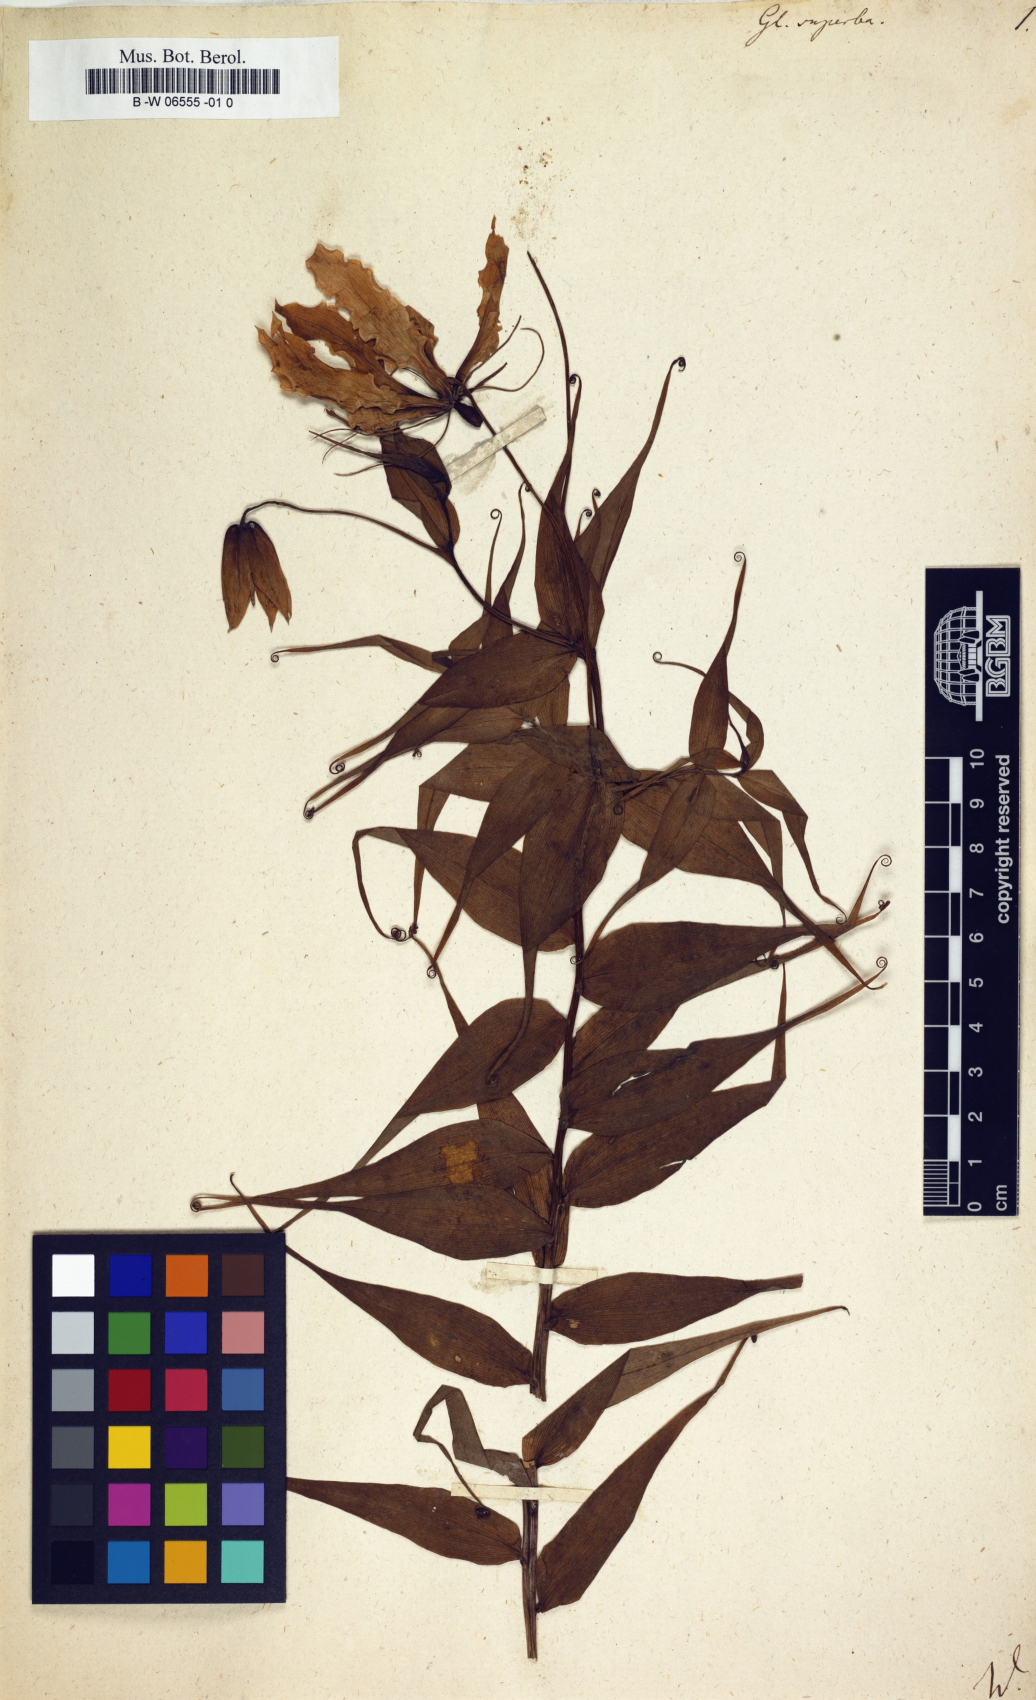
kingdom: Plantae
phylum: Tracheophyta
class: Liliopsida
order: Liliales
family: Colchicaceae
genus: Gloriosa
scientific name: Gloriosa superba
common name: Flame lily
